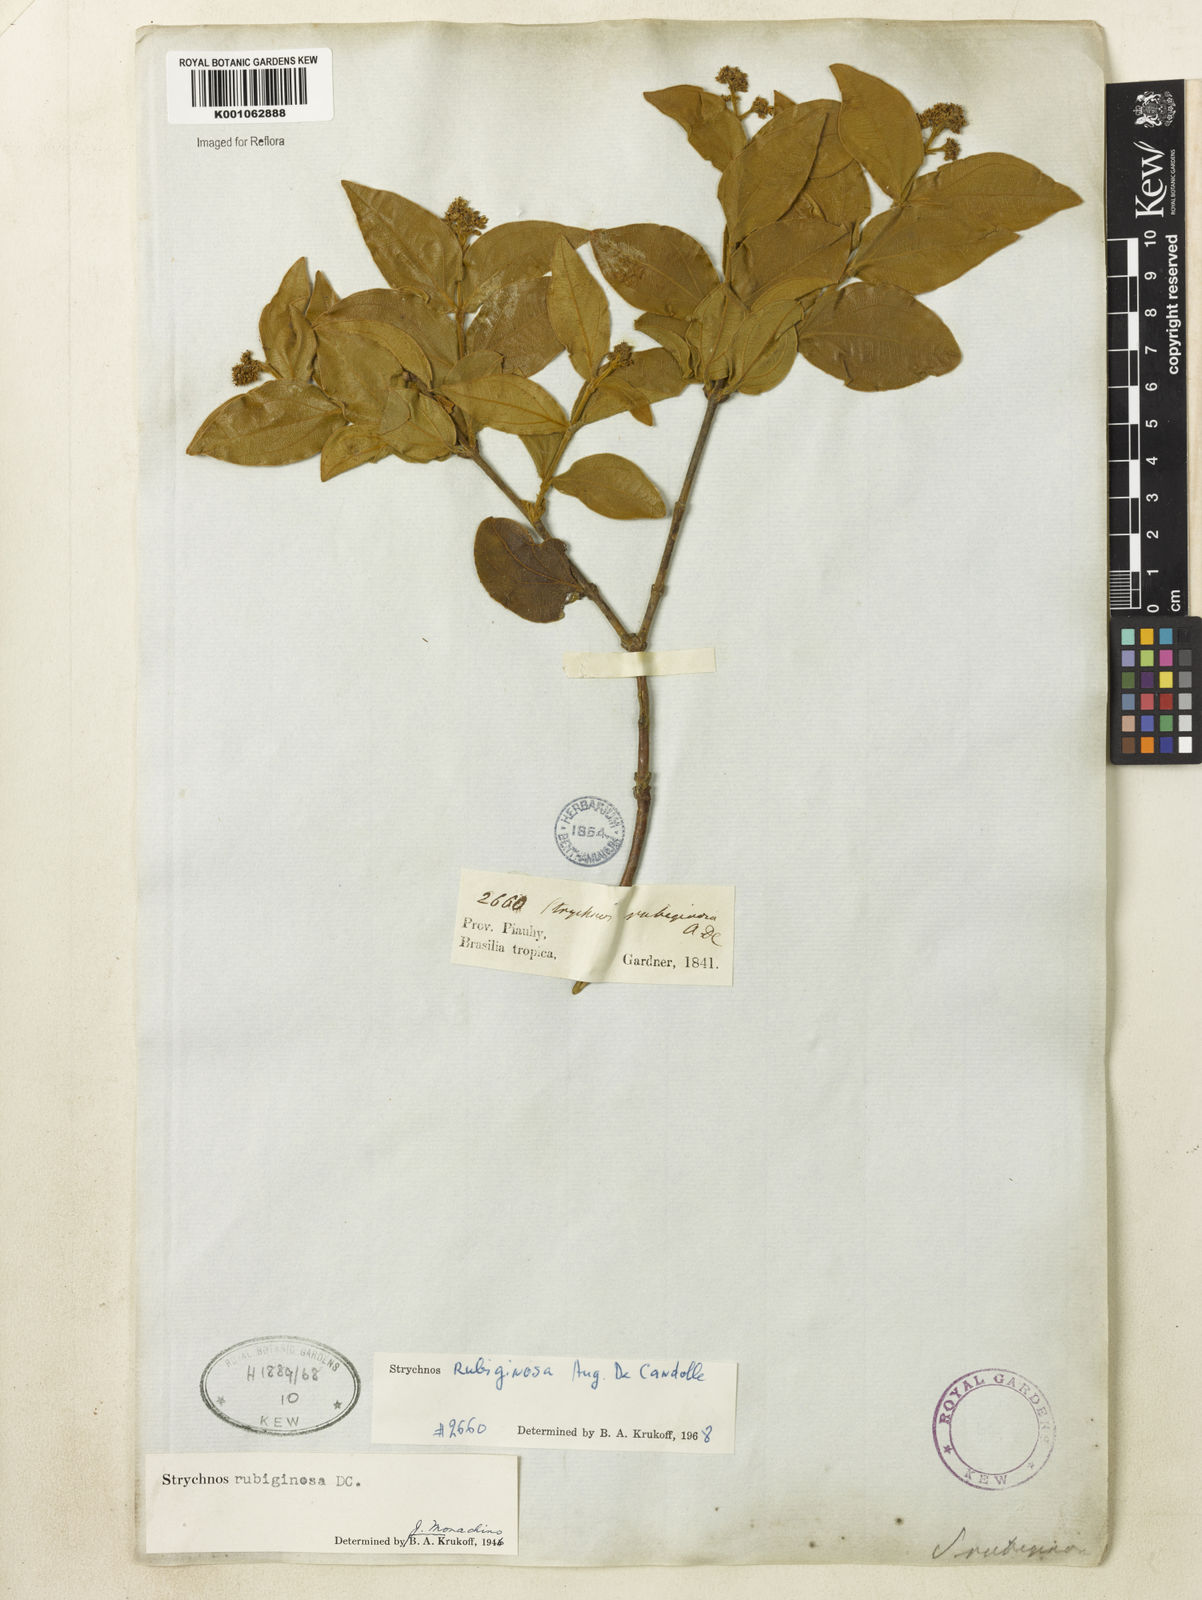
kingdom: Plantae
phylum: Tracheophyta
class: Magnoliopsida
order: Gentianales
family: Loganiaceae
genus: Strychnos
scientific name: Strychnos rubiginosa
